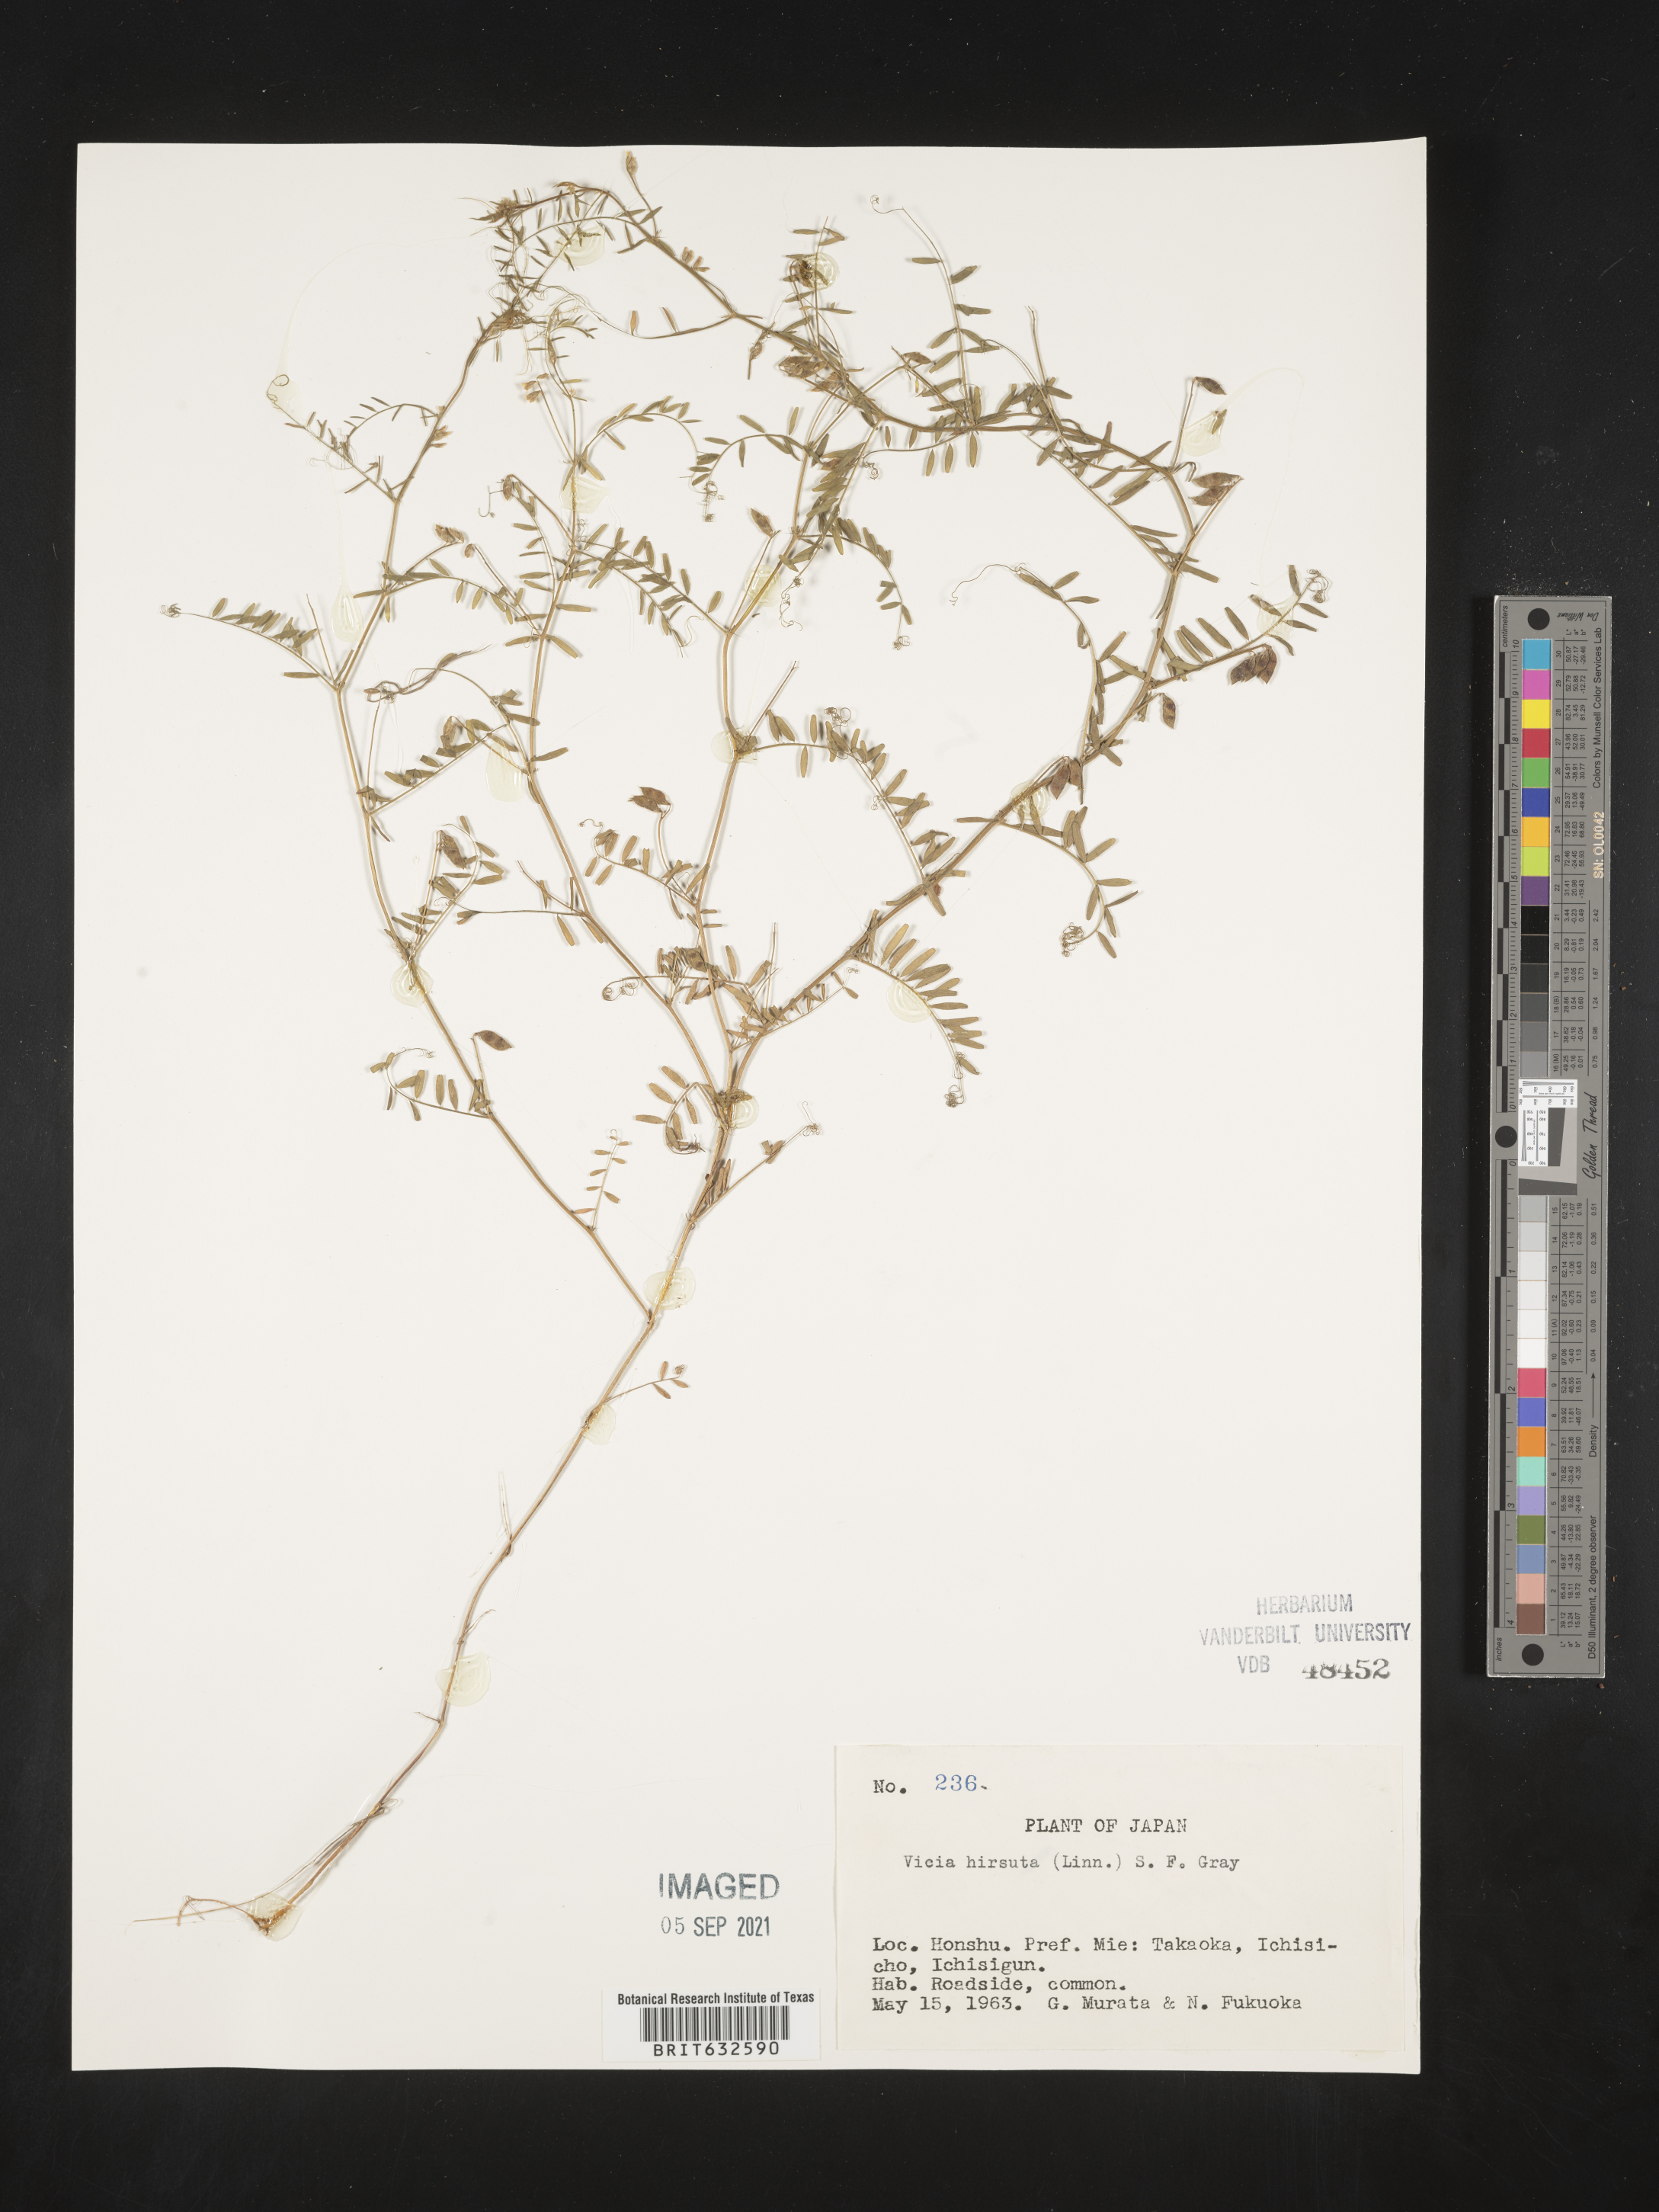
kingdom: Plantae
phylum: Tracheophyta
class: Magnoliopsida
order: Fabales
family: Fabaceae
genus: Vicia
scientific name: Vicia
